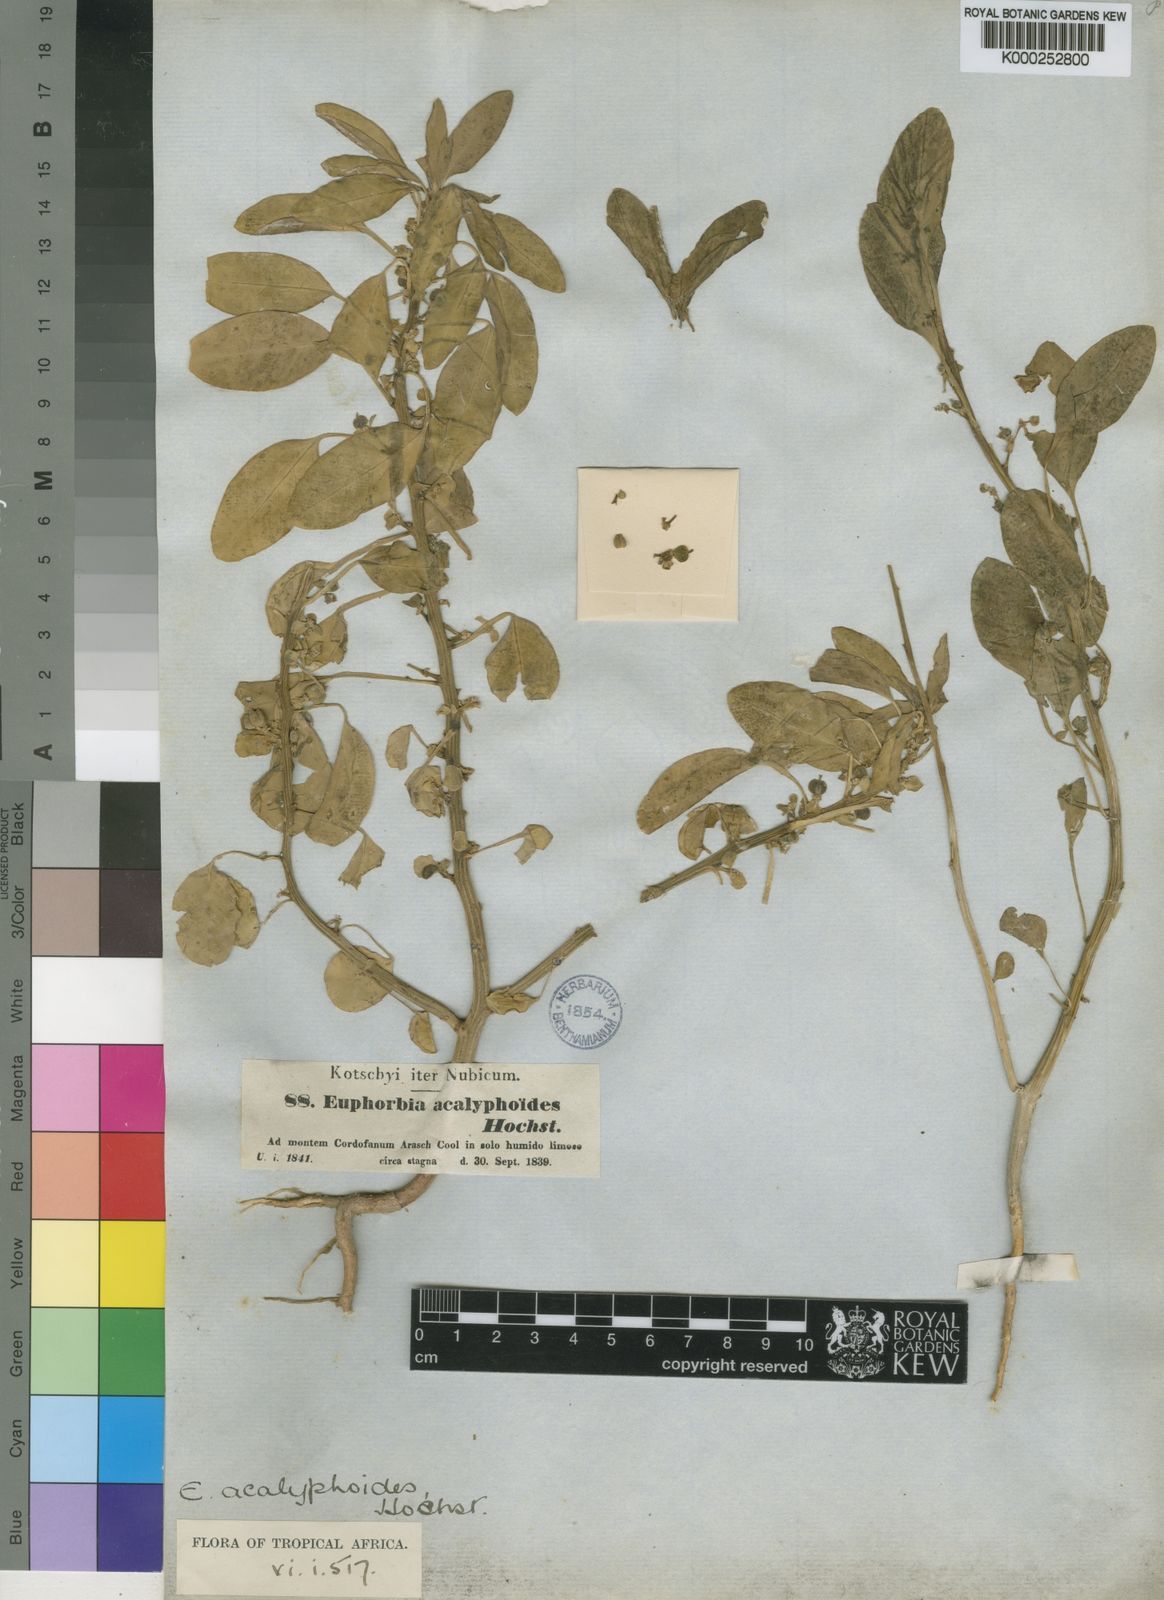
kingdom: Plantae
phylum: Tracheophyta
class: Magnoliopsida
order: Malpighiales
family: Euphorbiaceae
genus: Euphorbia
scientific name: Euphorbia acalyphoides
